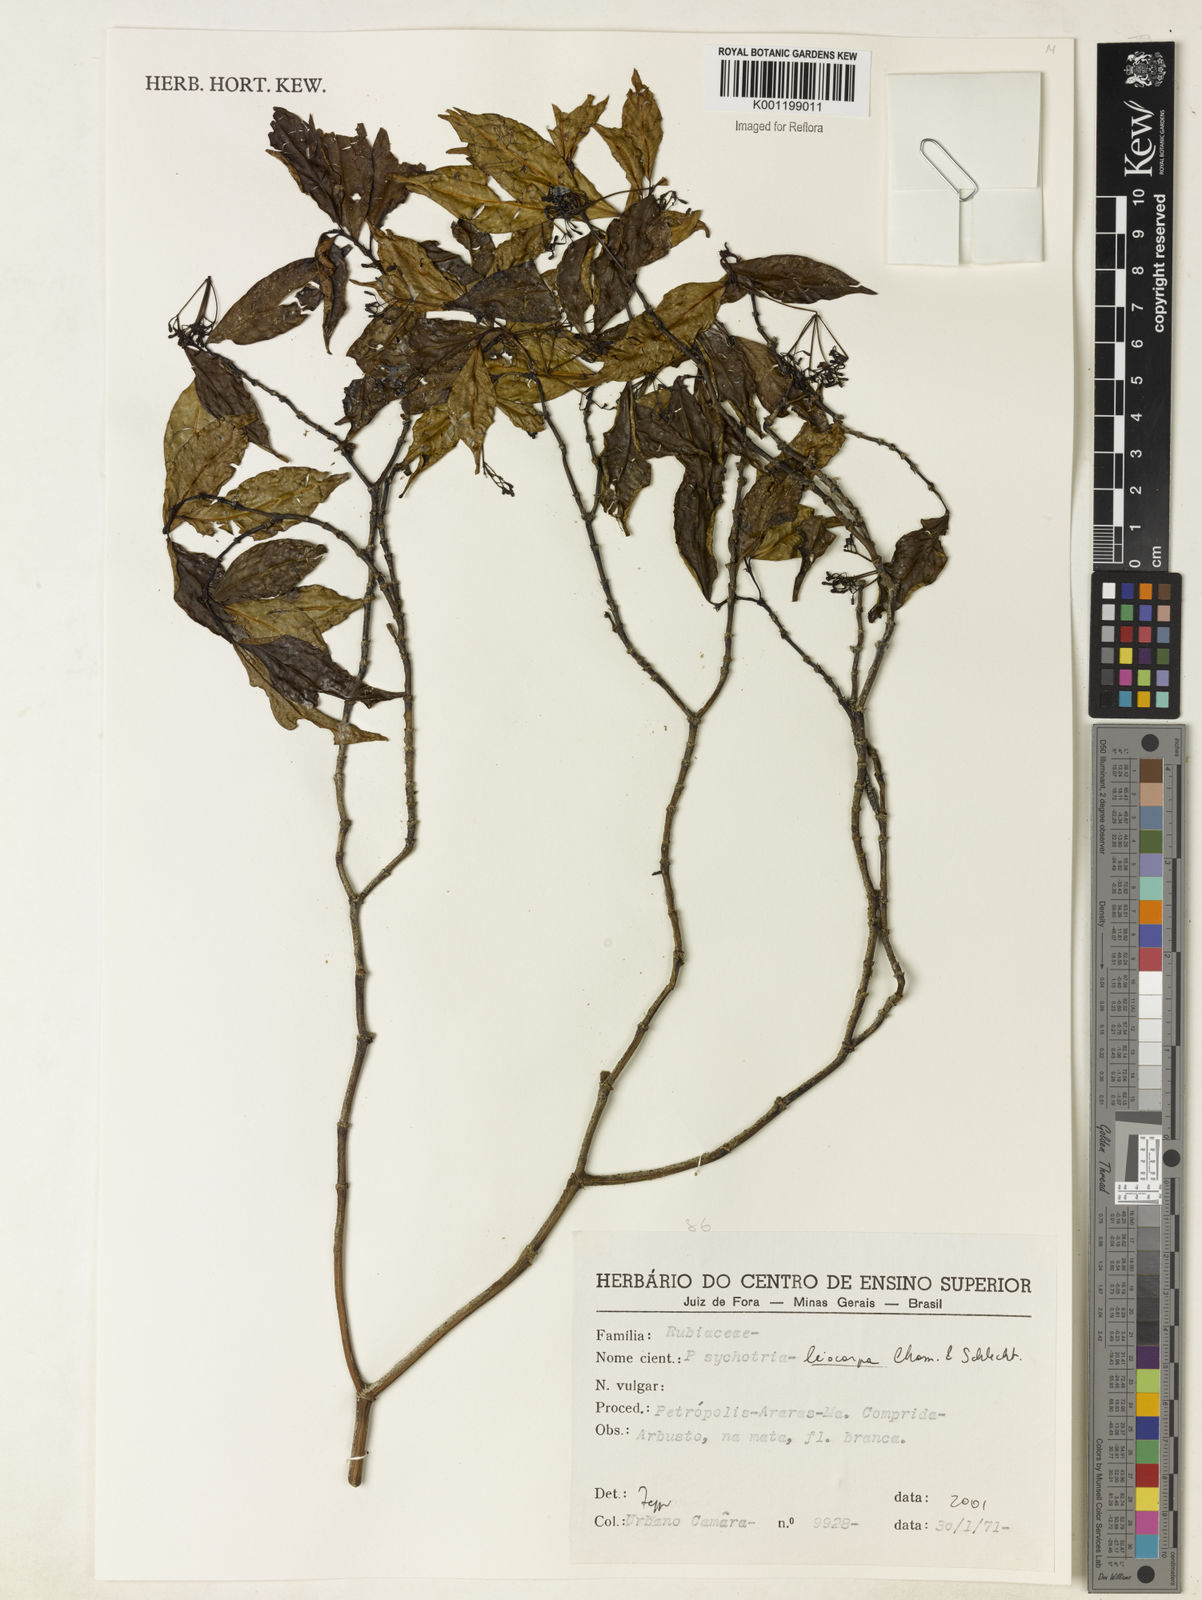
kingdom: Plantae
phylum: Tracheophyta
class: Magnoliopsida
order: Gentianales
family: Rubiaceae
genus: Psychotria
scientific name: Psychotria leiocarpa
